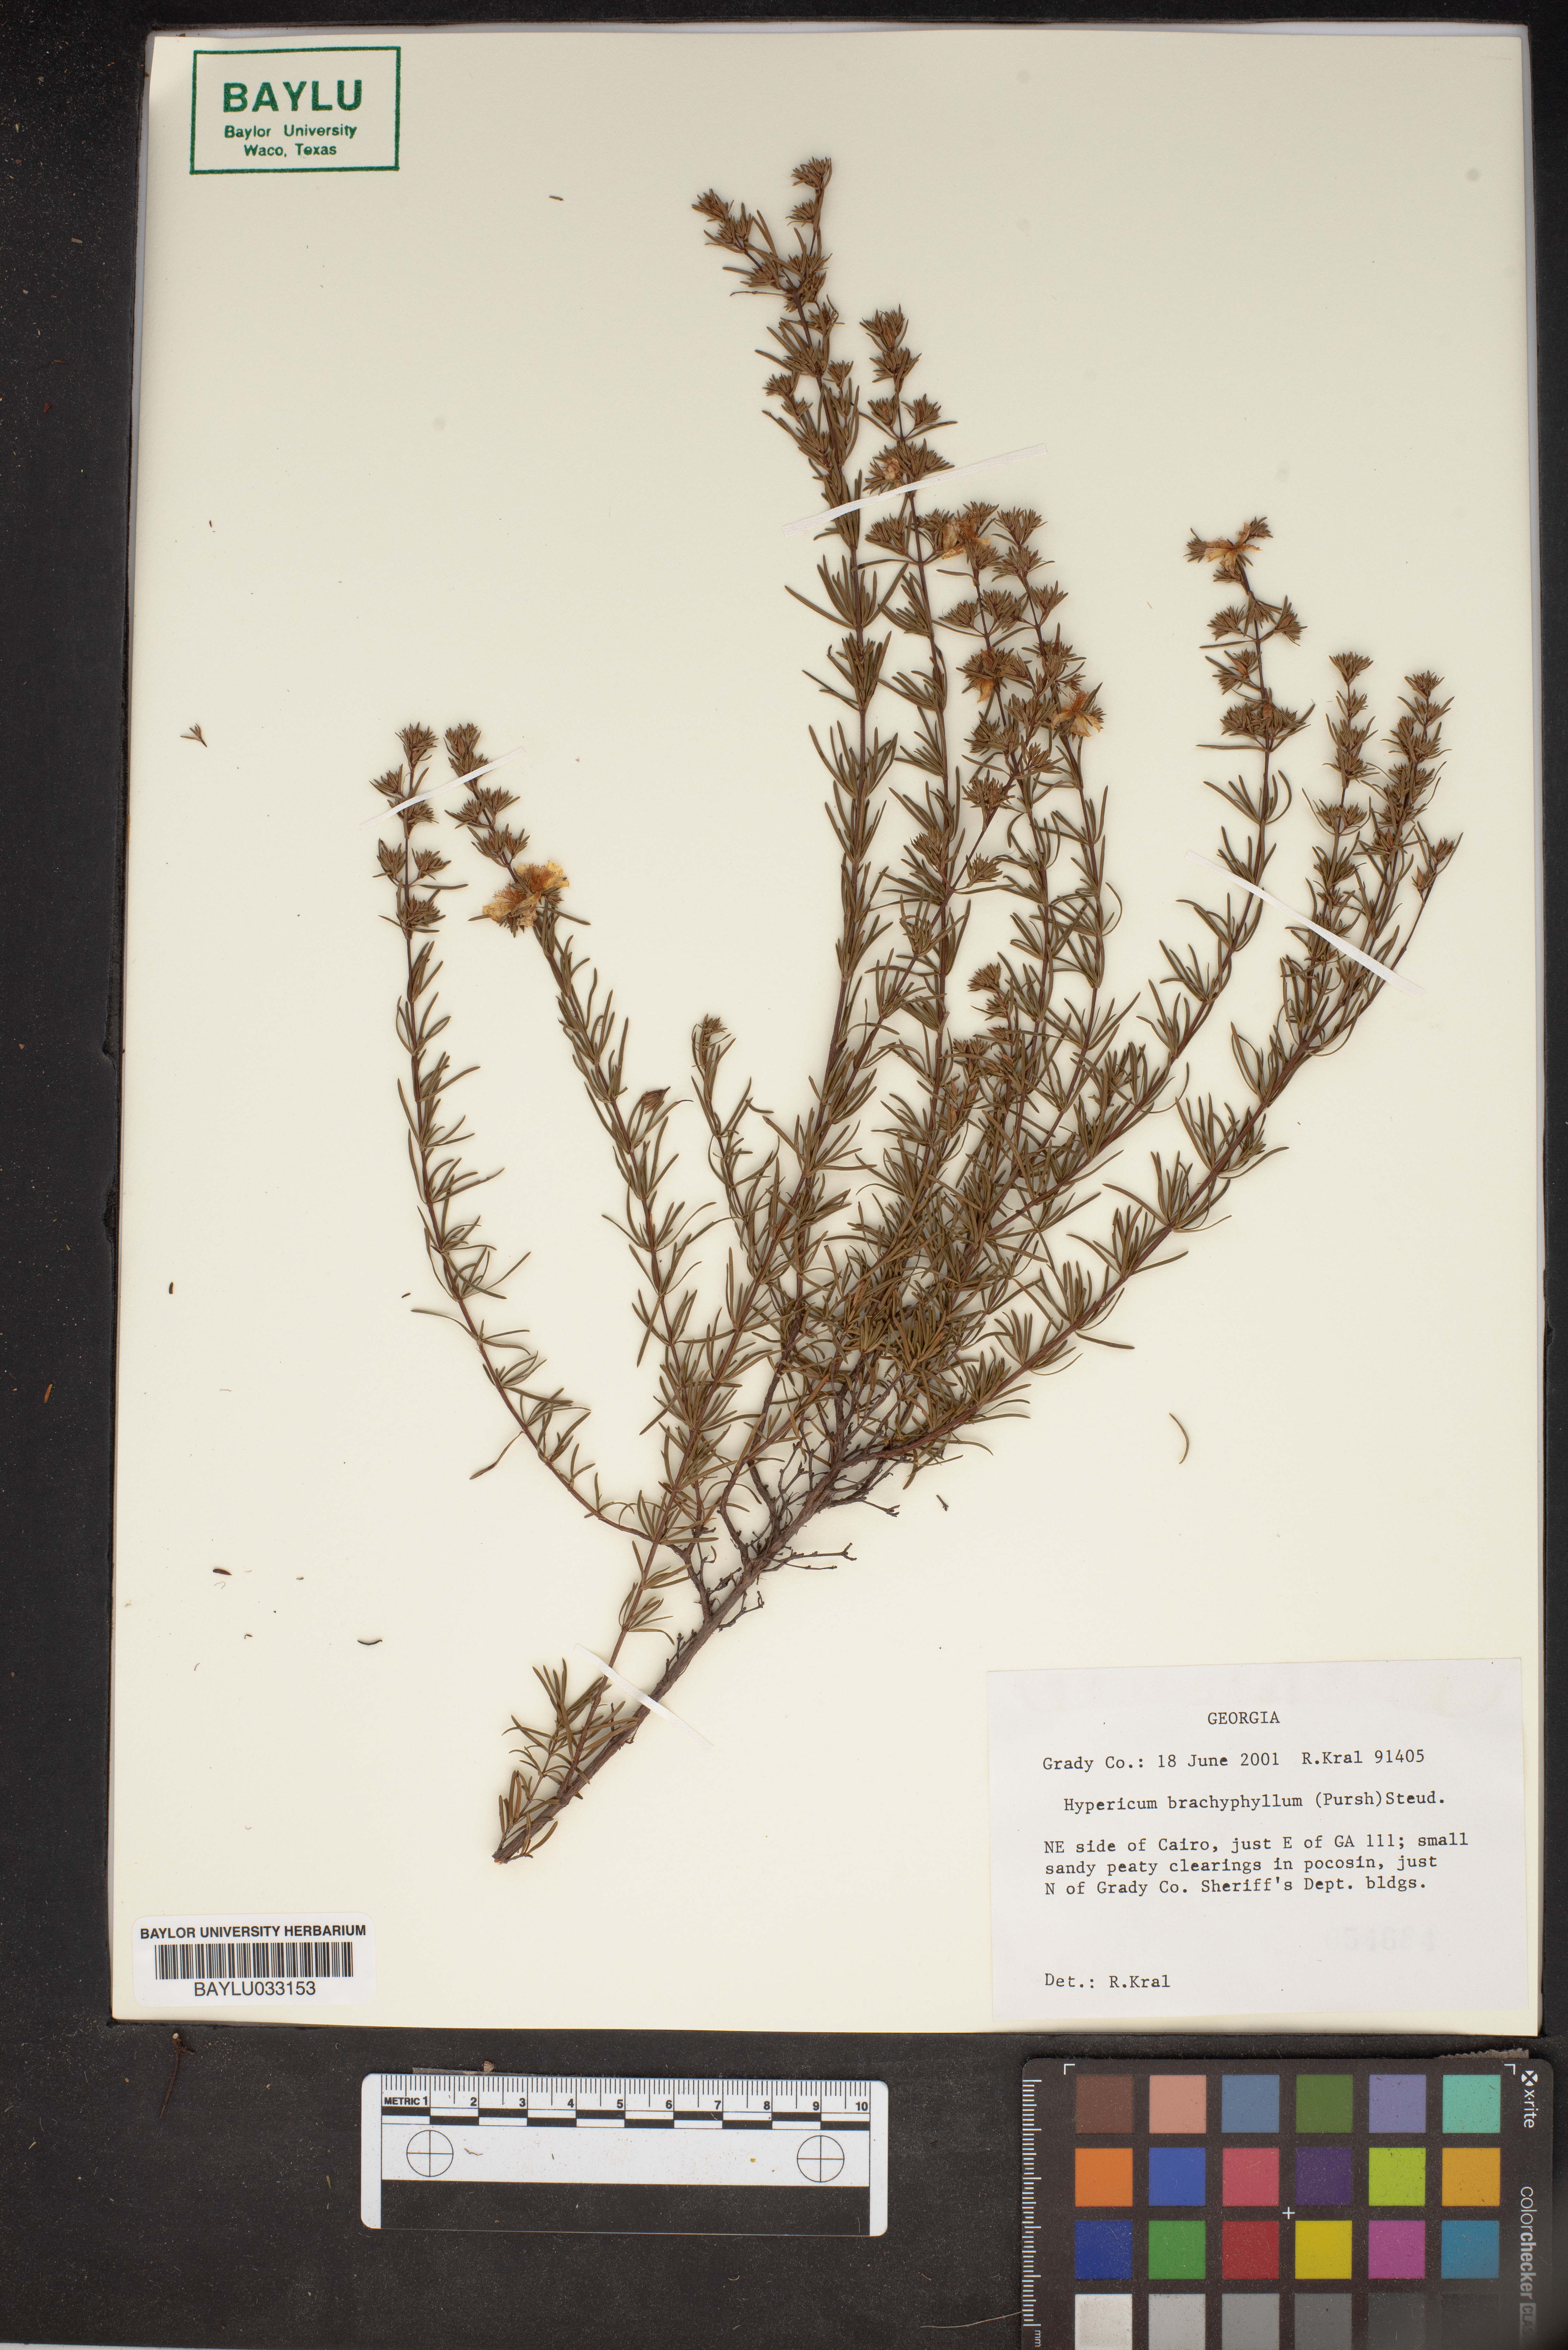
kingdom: Plantae
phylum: Tracheophyta
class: Magnoliopsida
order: Malpighiales
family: Hypericaceae
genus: Hypericum
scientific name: Hypericum brachyphyllum
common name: Coastal plain st. john's-wort
